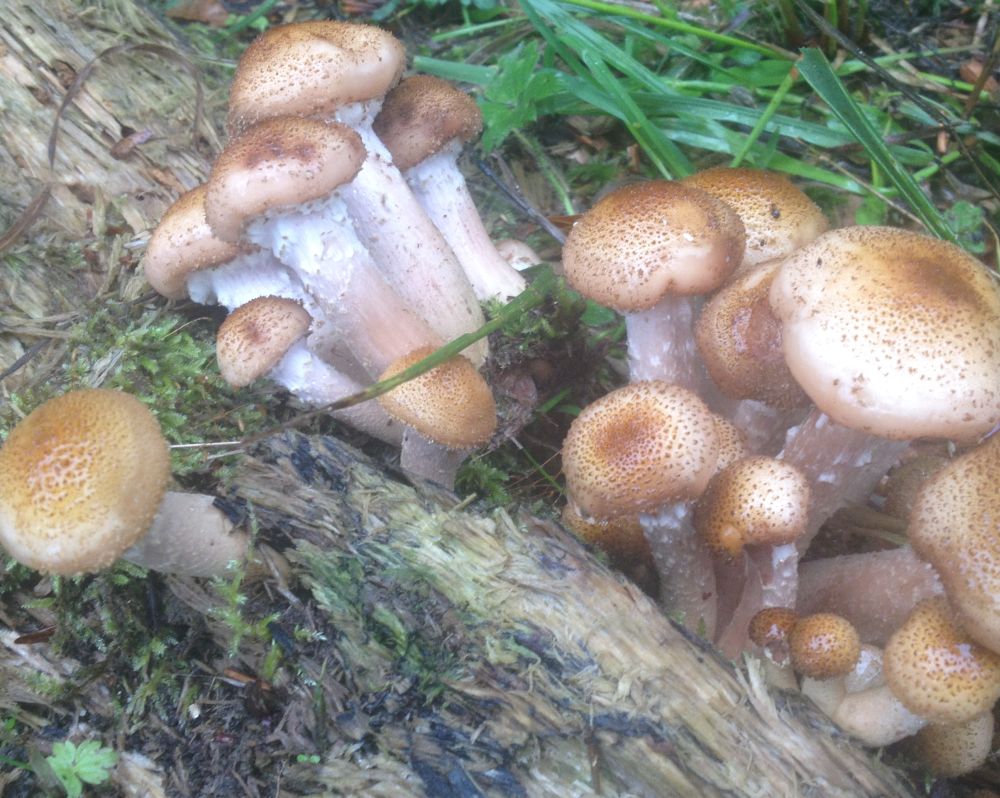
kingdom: Fungi
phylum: Basidiomycota
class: Agaricomycetes
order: Agaricales
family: Physalacriaceae
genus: Armillaria
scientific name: Armillaria ostoyae
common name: mørk honningsvamp
